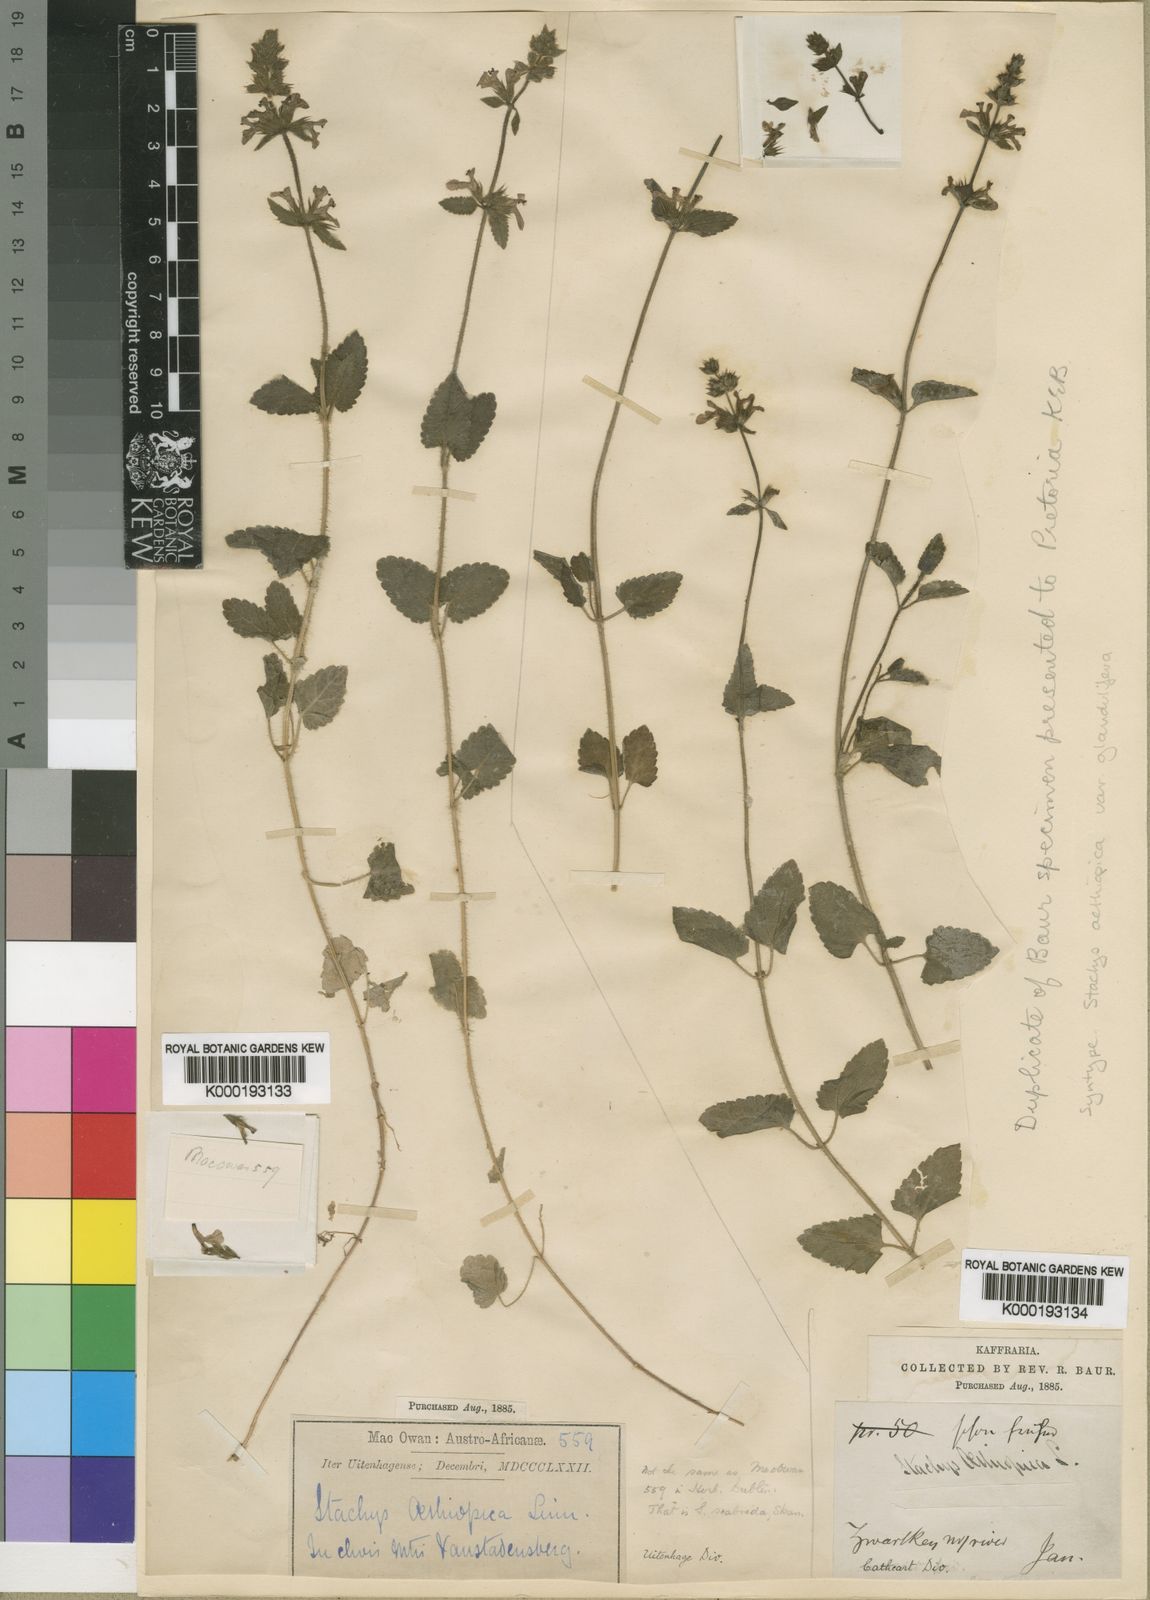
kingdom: Plantae
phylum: Tracheophyta
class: Magnoliopsida
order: Lamiales
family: Lamiaceae
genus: Stachys
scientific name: Stachys aethiopica
